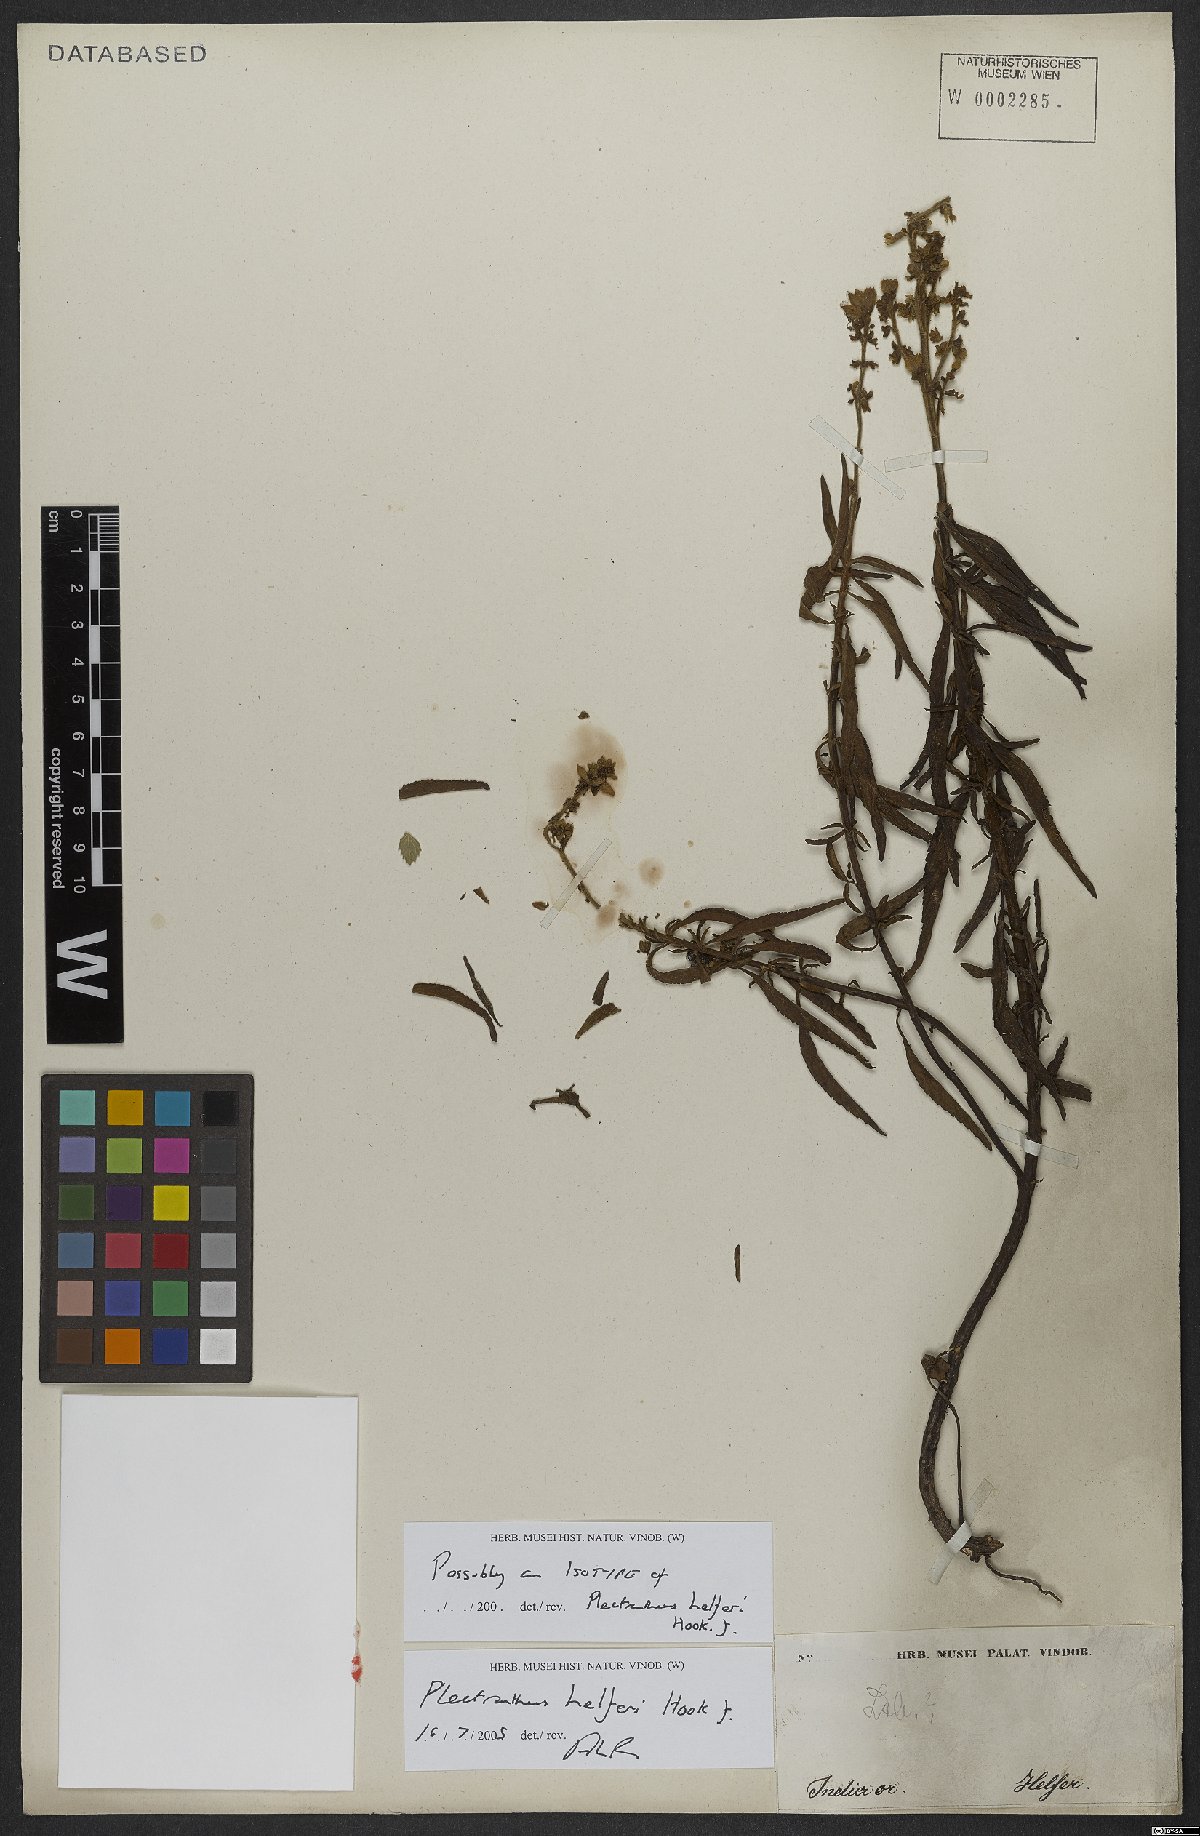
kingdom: Plantae
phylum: Tracheophyta
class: Magnoliopsida
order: Lamiales
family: Lamiaceae
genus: Coleus
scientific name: Coleus helferi
